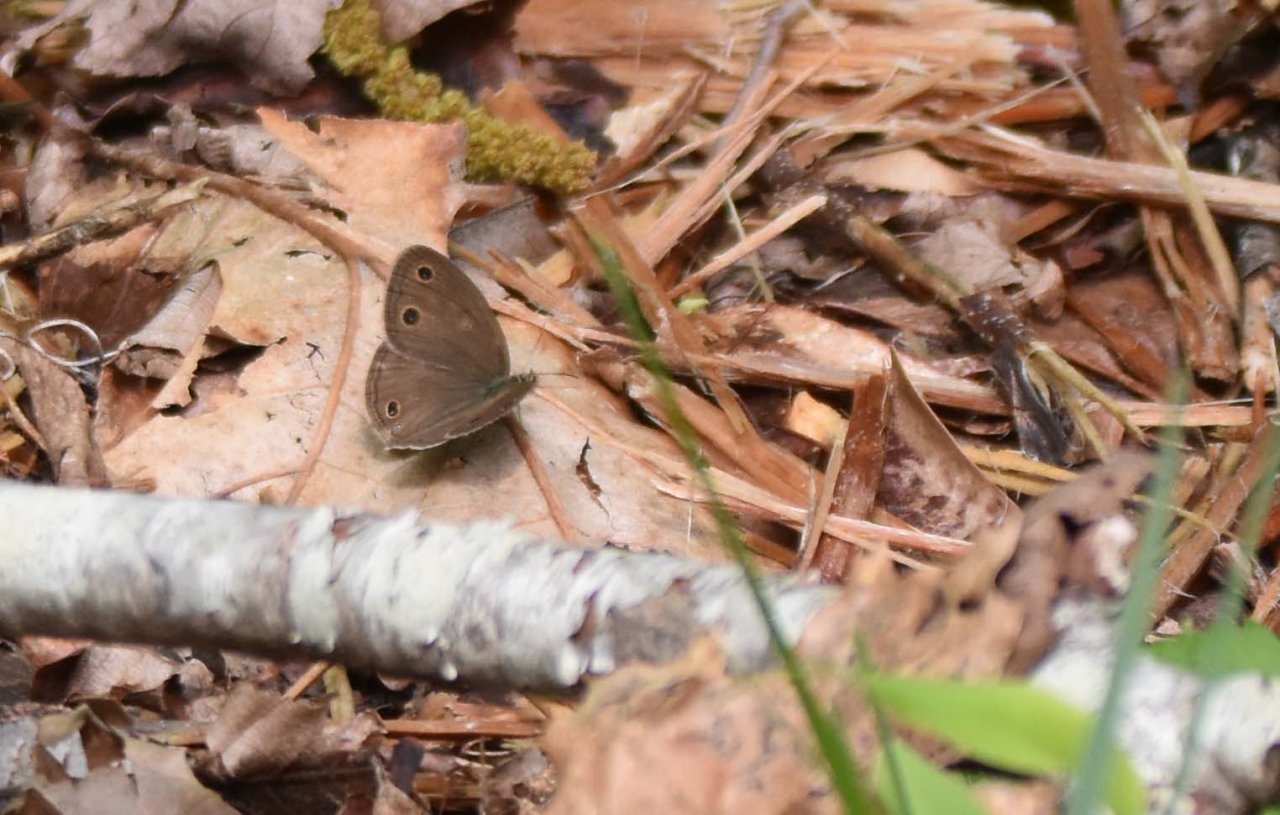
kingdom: Animalia
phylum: Arthropoda
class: Insecta
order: Lepidoptera
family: Nymphalidae
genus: Euptychia
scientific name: Euptychia cymela
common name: Little Wood Satyr
